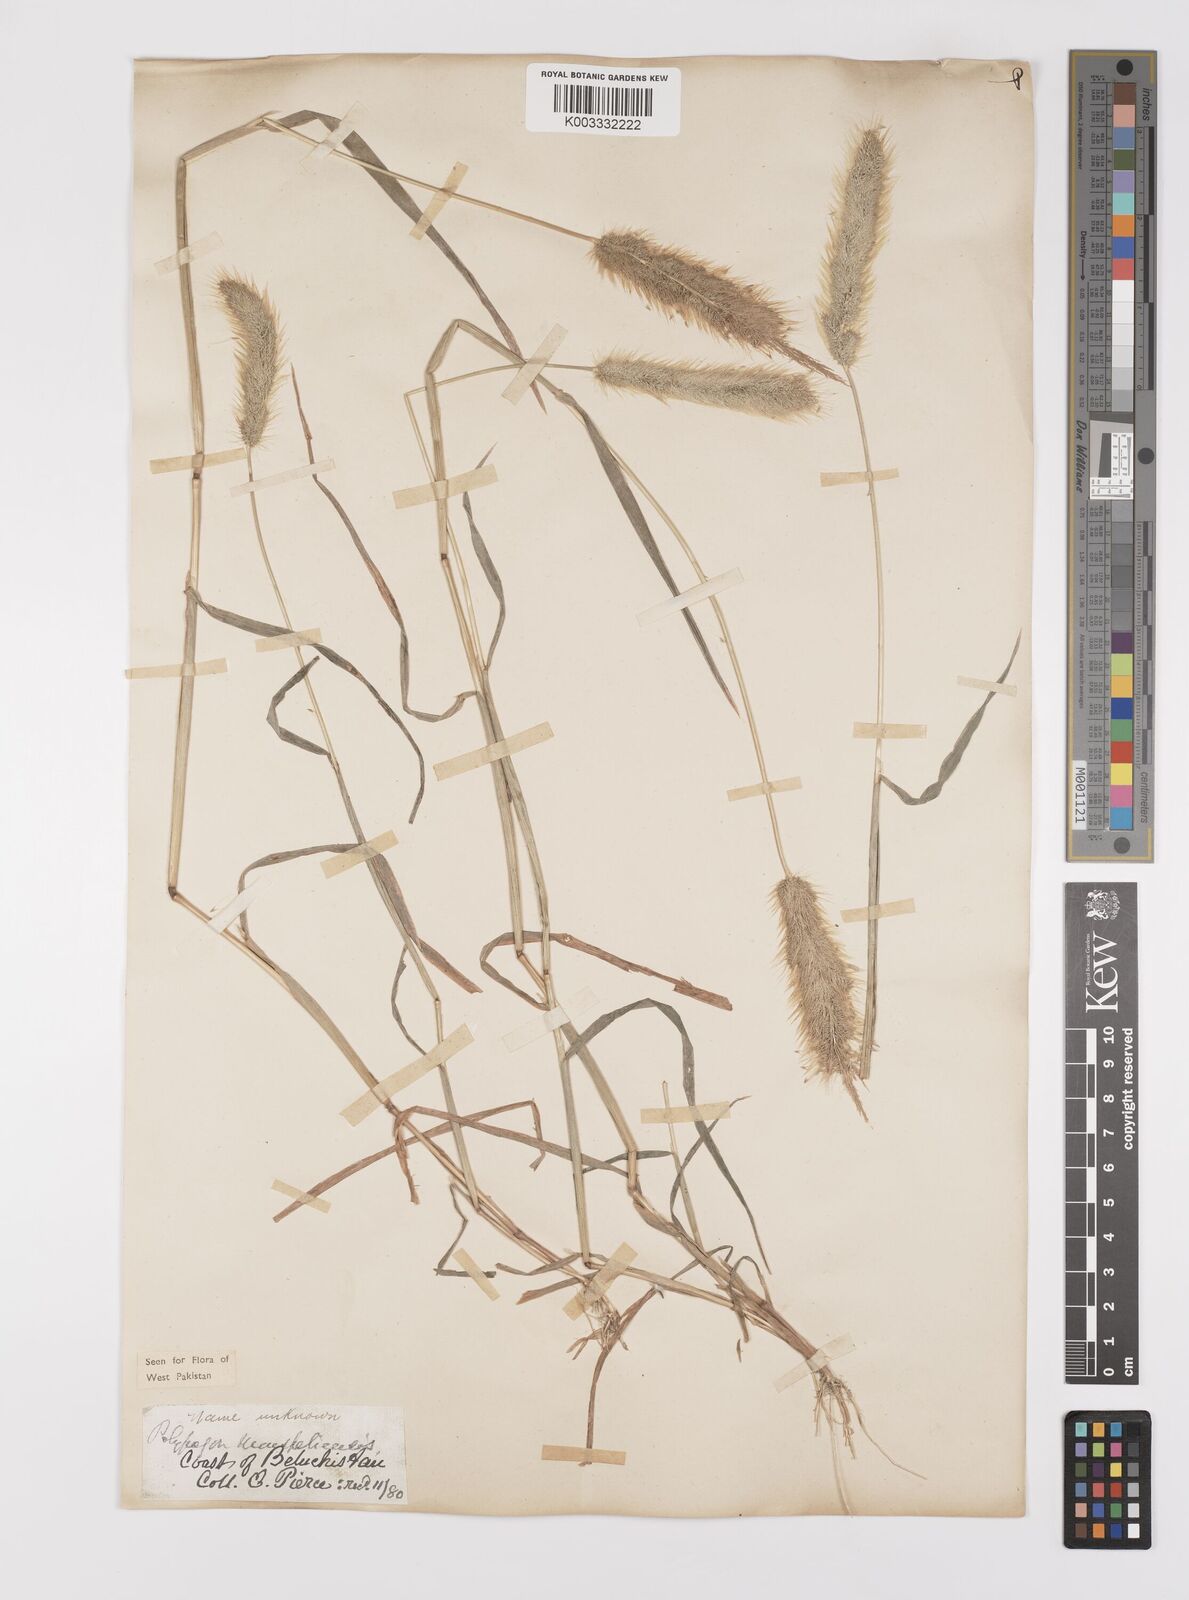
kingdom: Plantae
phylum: Tracheophyta
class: Liliopsida
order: Poales
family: Poaceae
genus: Polypogon
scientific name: Polypogon monspeliensis
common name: Annual rabbitsfoot grass
